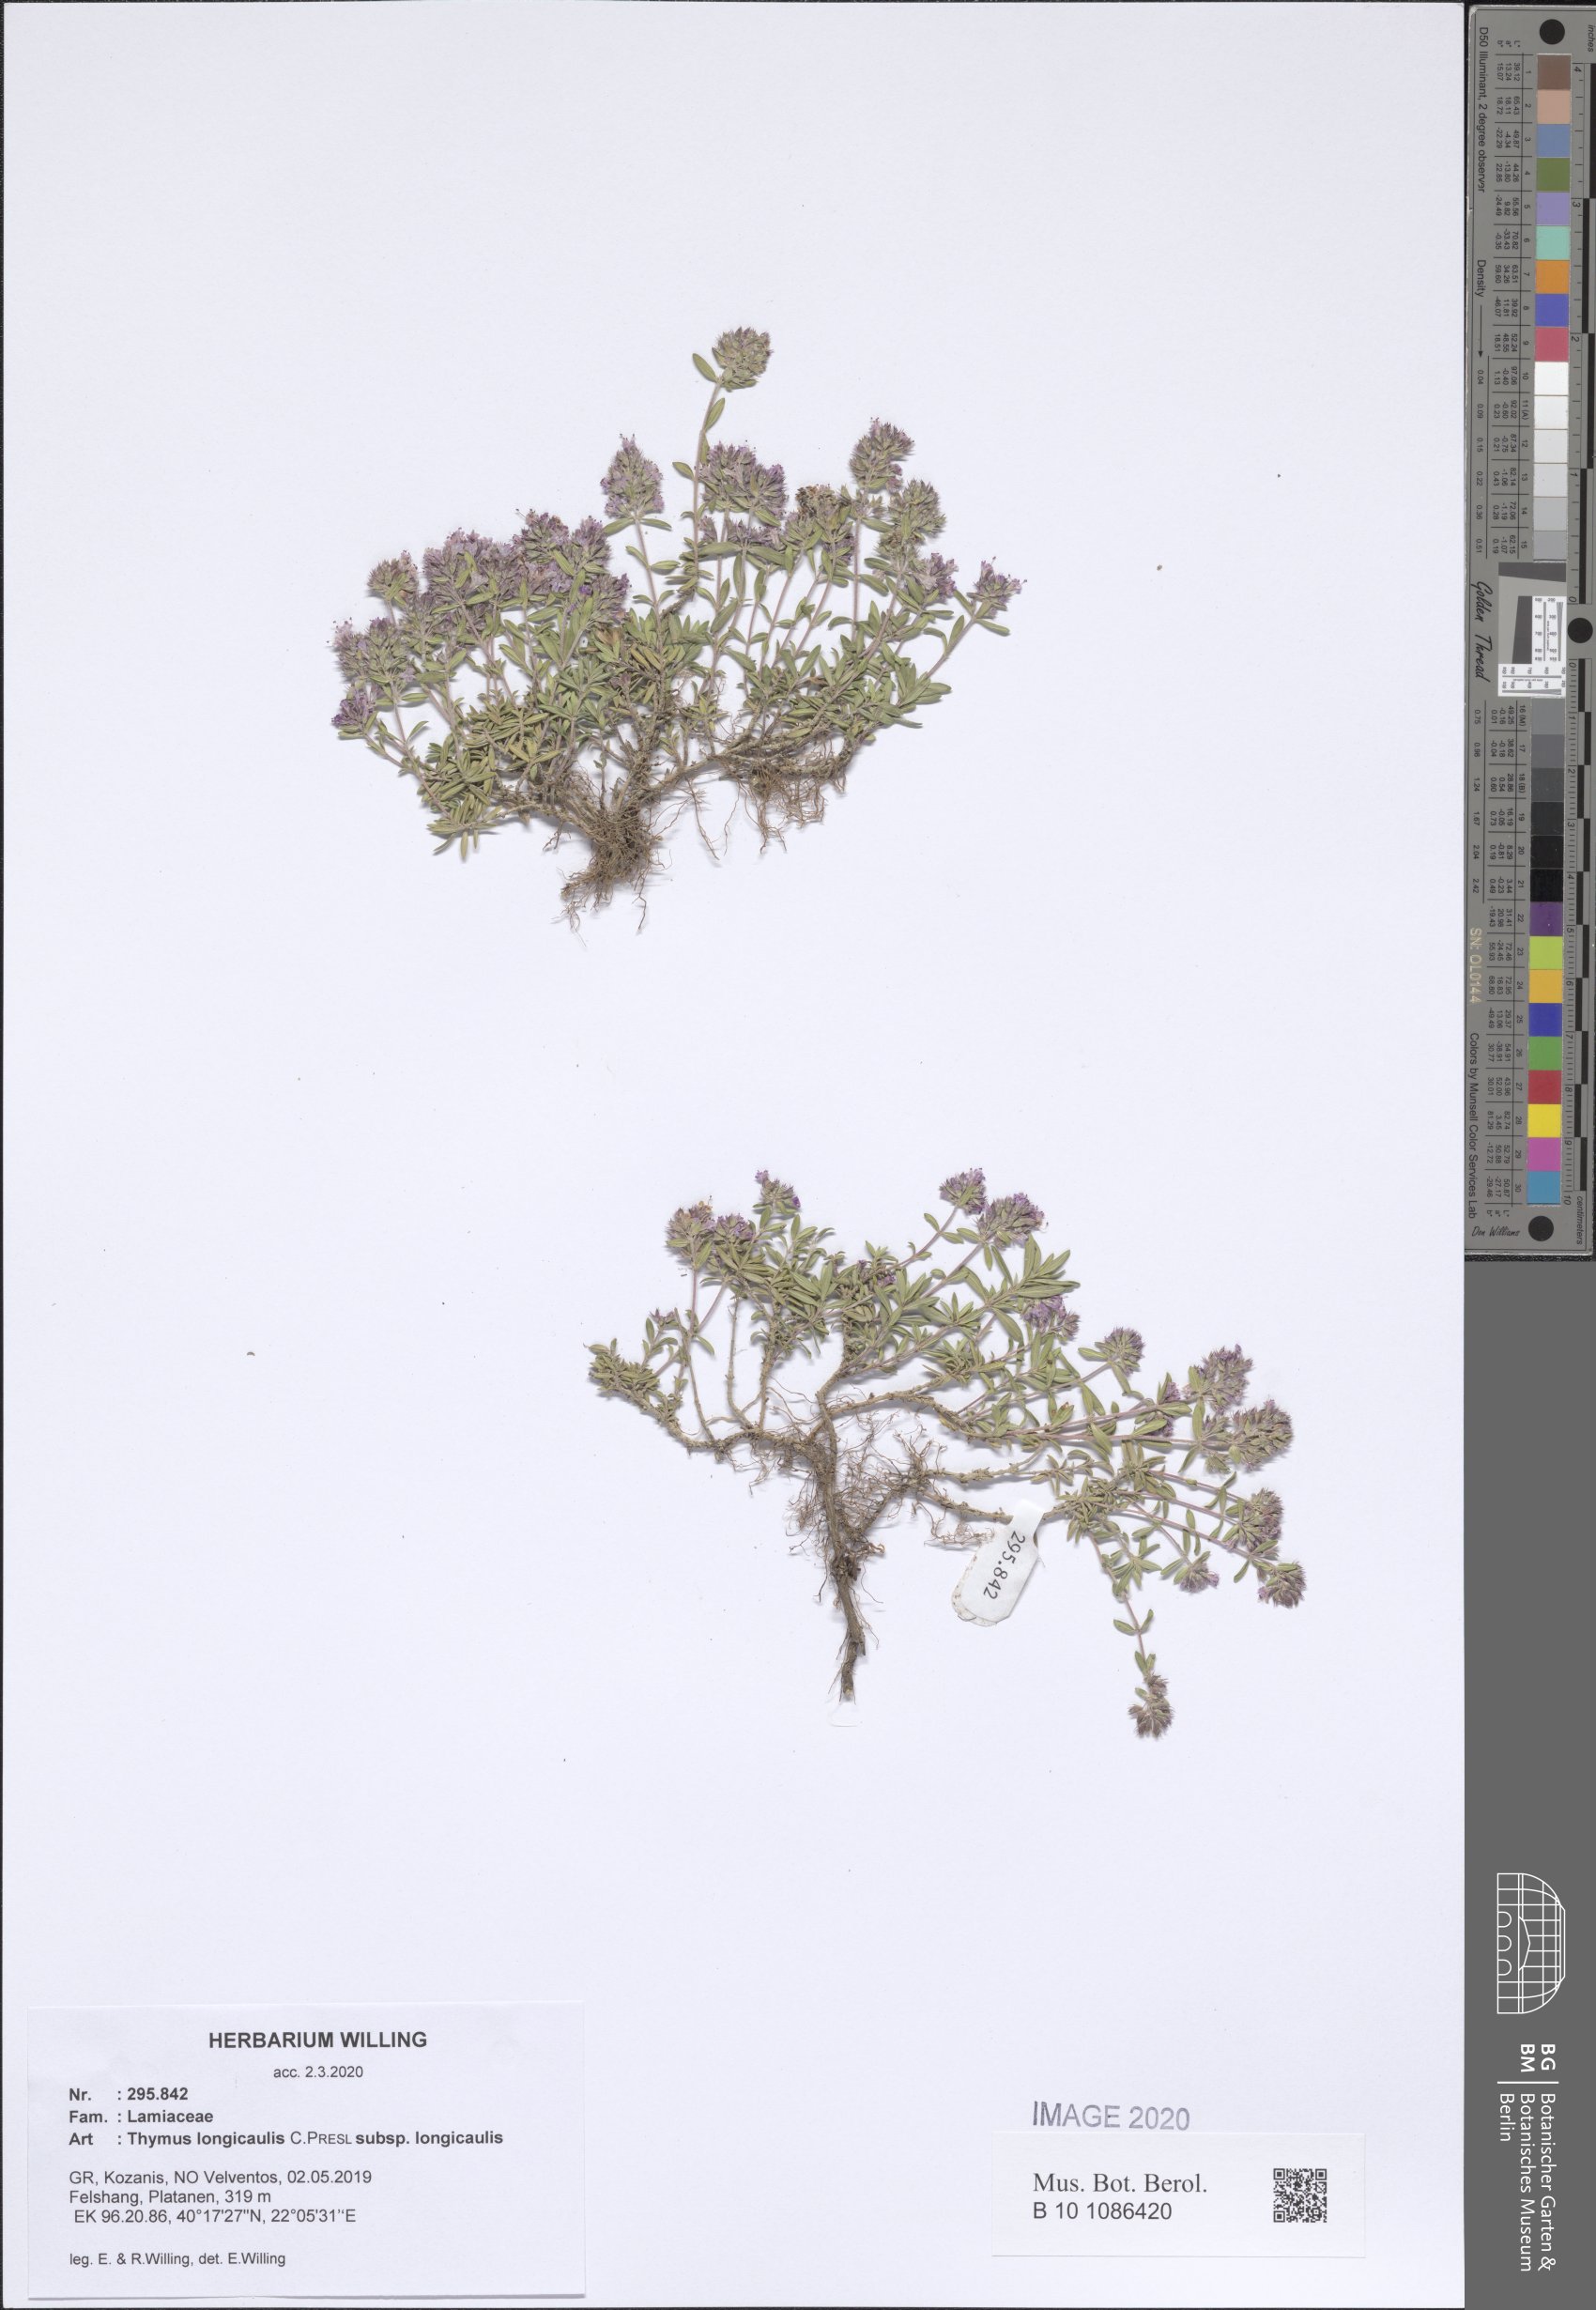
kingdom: Plantae
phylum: Tracheophyta
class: Magnoliopsida
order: Lamiales
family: Lamiaceae
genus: Thymus
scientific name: Thymus longicaulis
